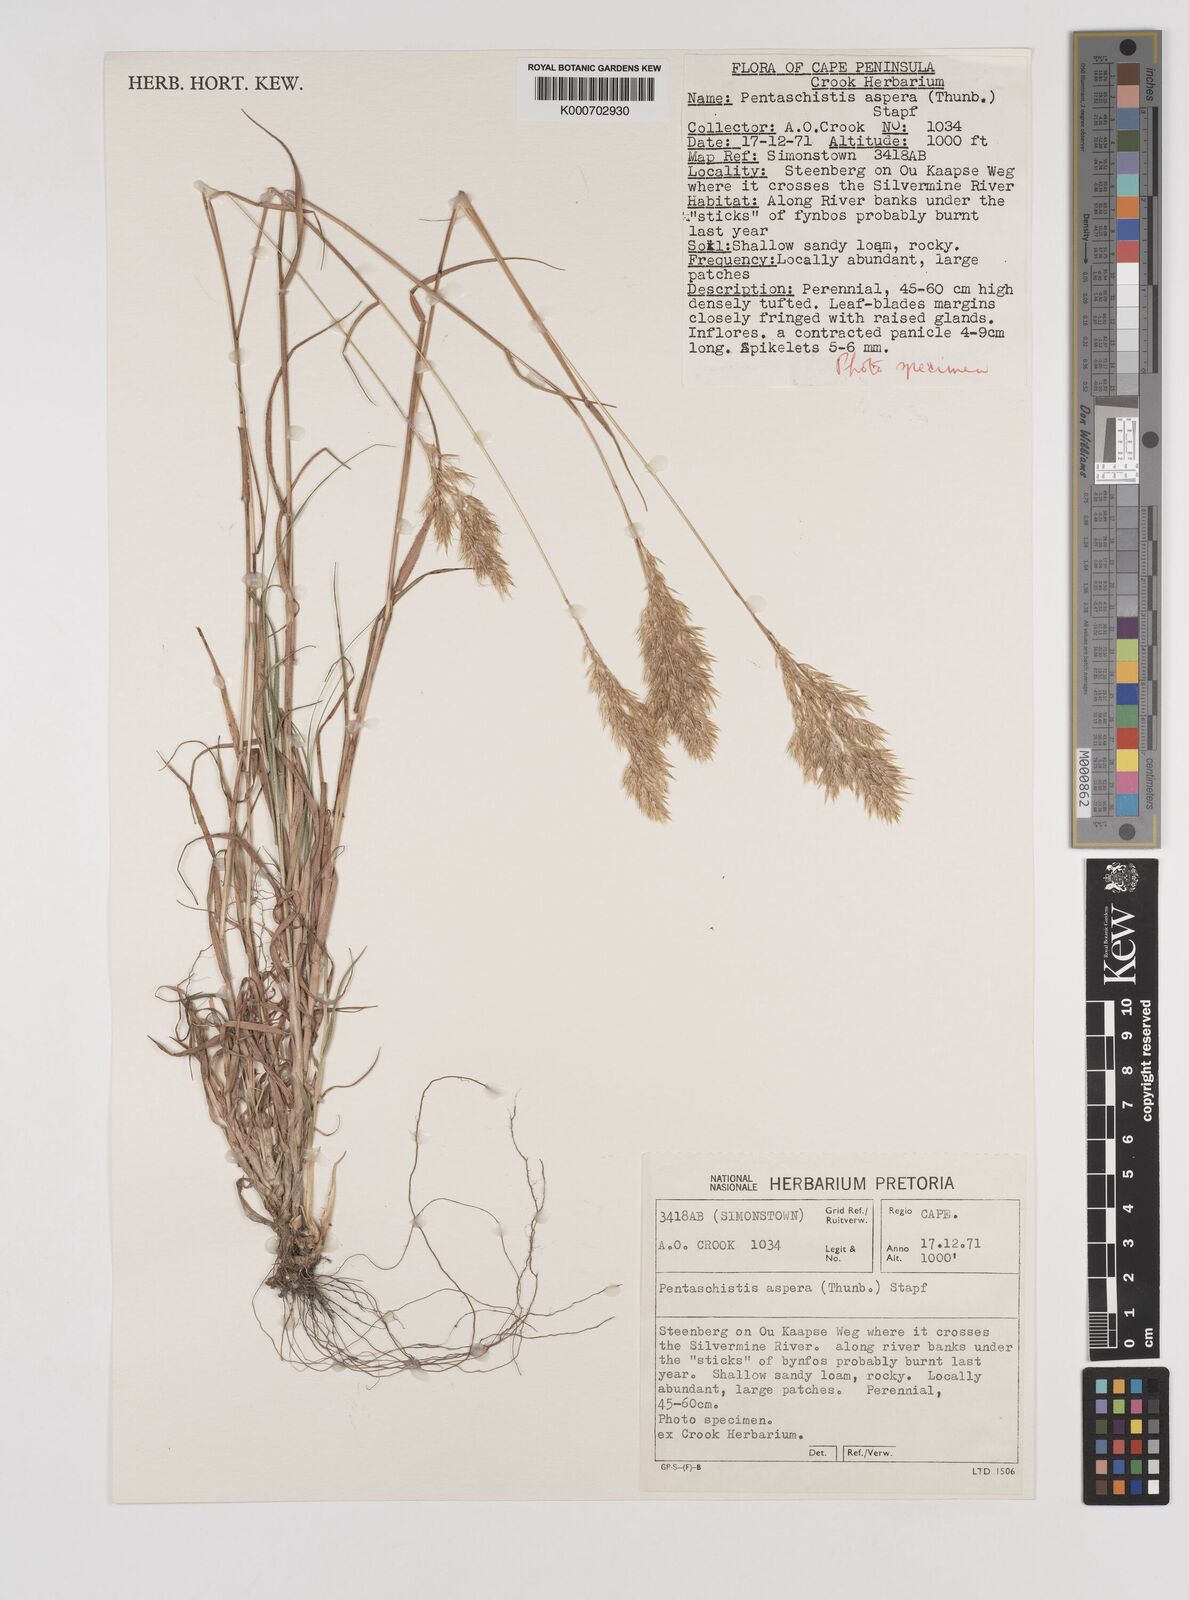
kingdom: Plantae
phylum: Tracheophyta
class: Liliopsida
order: Poales
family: Poaceae
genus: Pentameris
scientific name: Pentameris aspera
